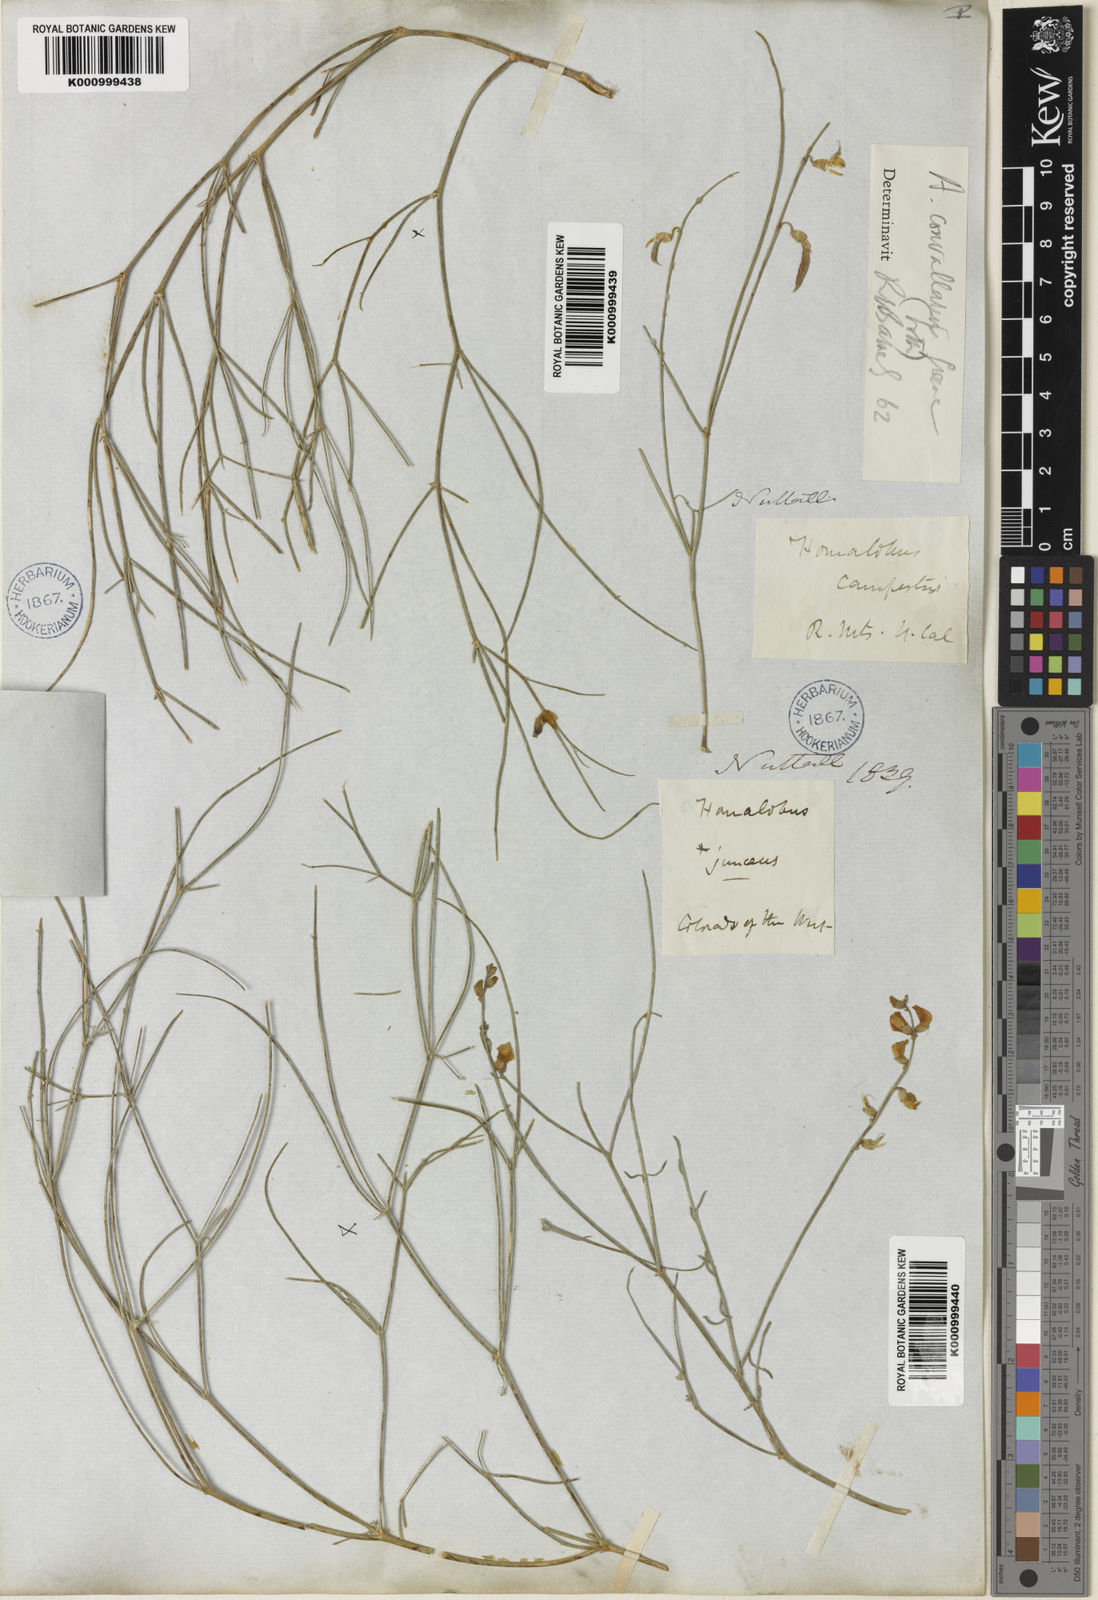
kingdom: Plantae
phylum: Tracheophyta
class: Magnoliopsida
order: Fabales
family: Fabaceae
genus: Astragalus
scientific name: Astragalus convallarius
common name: Lesser rushy milk-vetch
